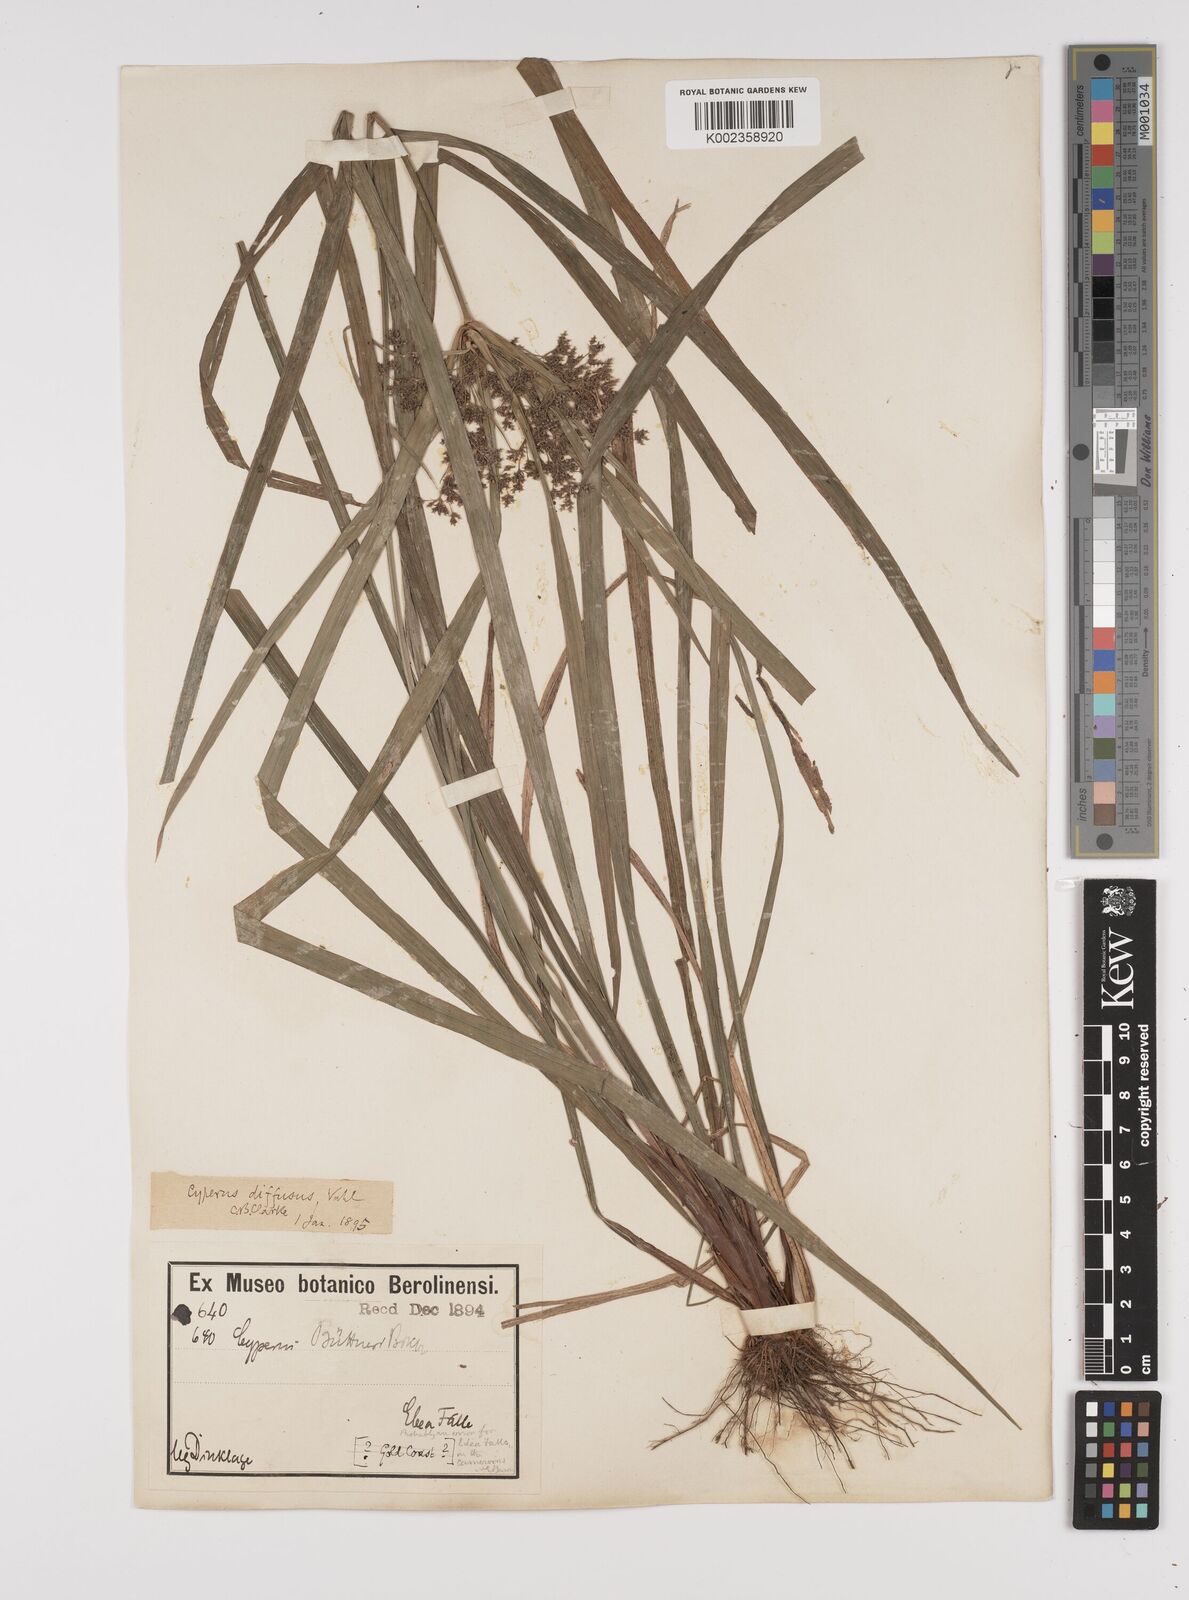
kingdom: Plantae
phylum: Tracheophyta
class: Liliopsida
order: Poales
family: Cyperaceae
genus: Cyperus
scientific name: Cyperus buchholzii
